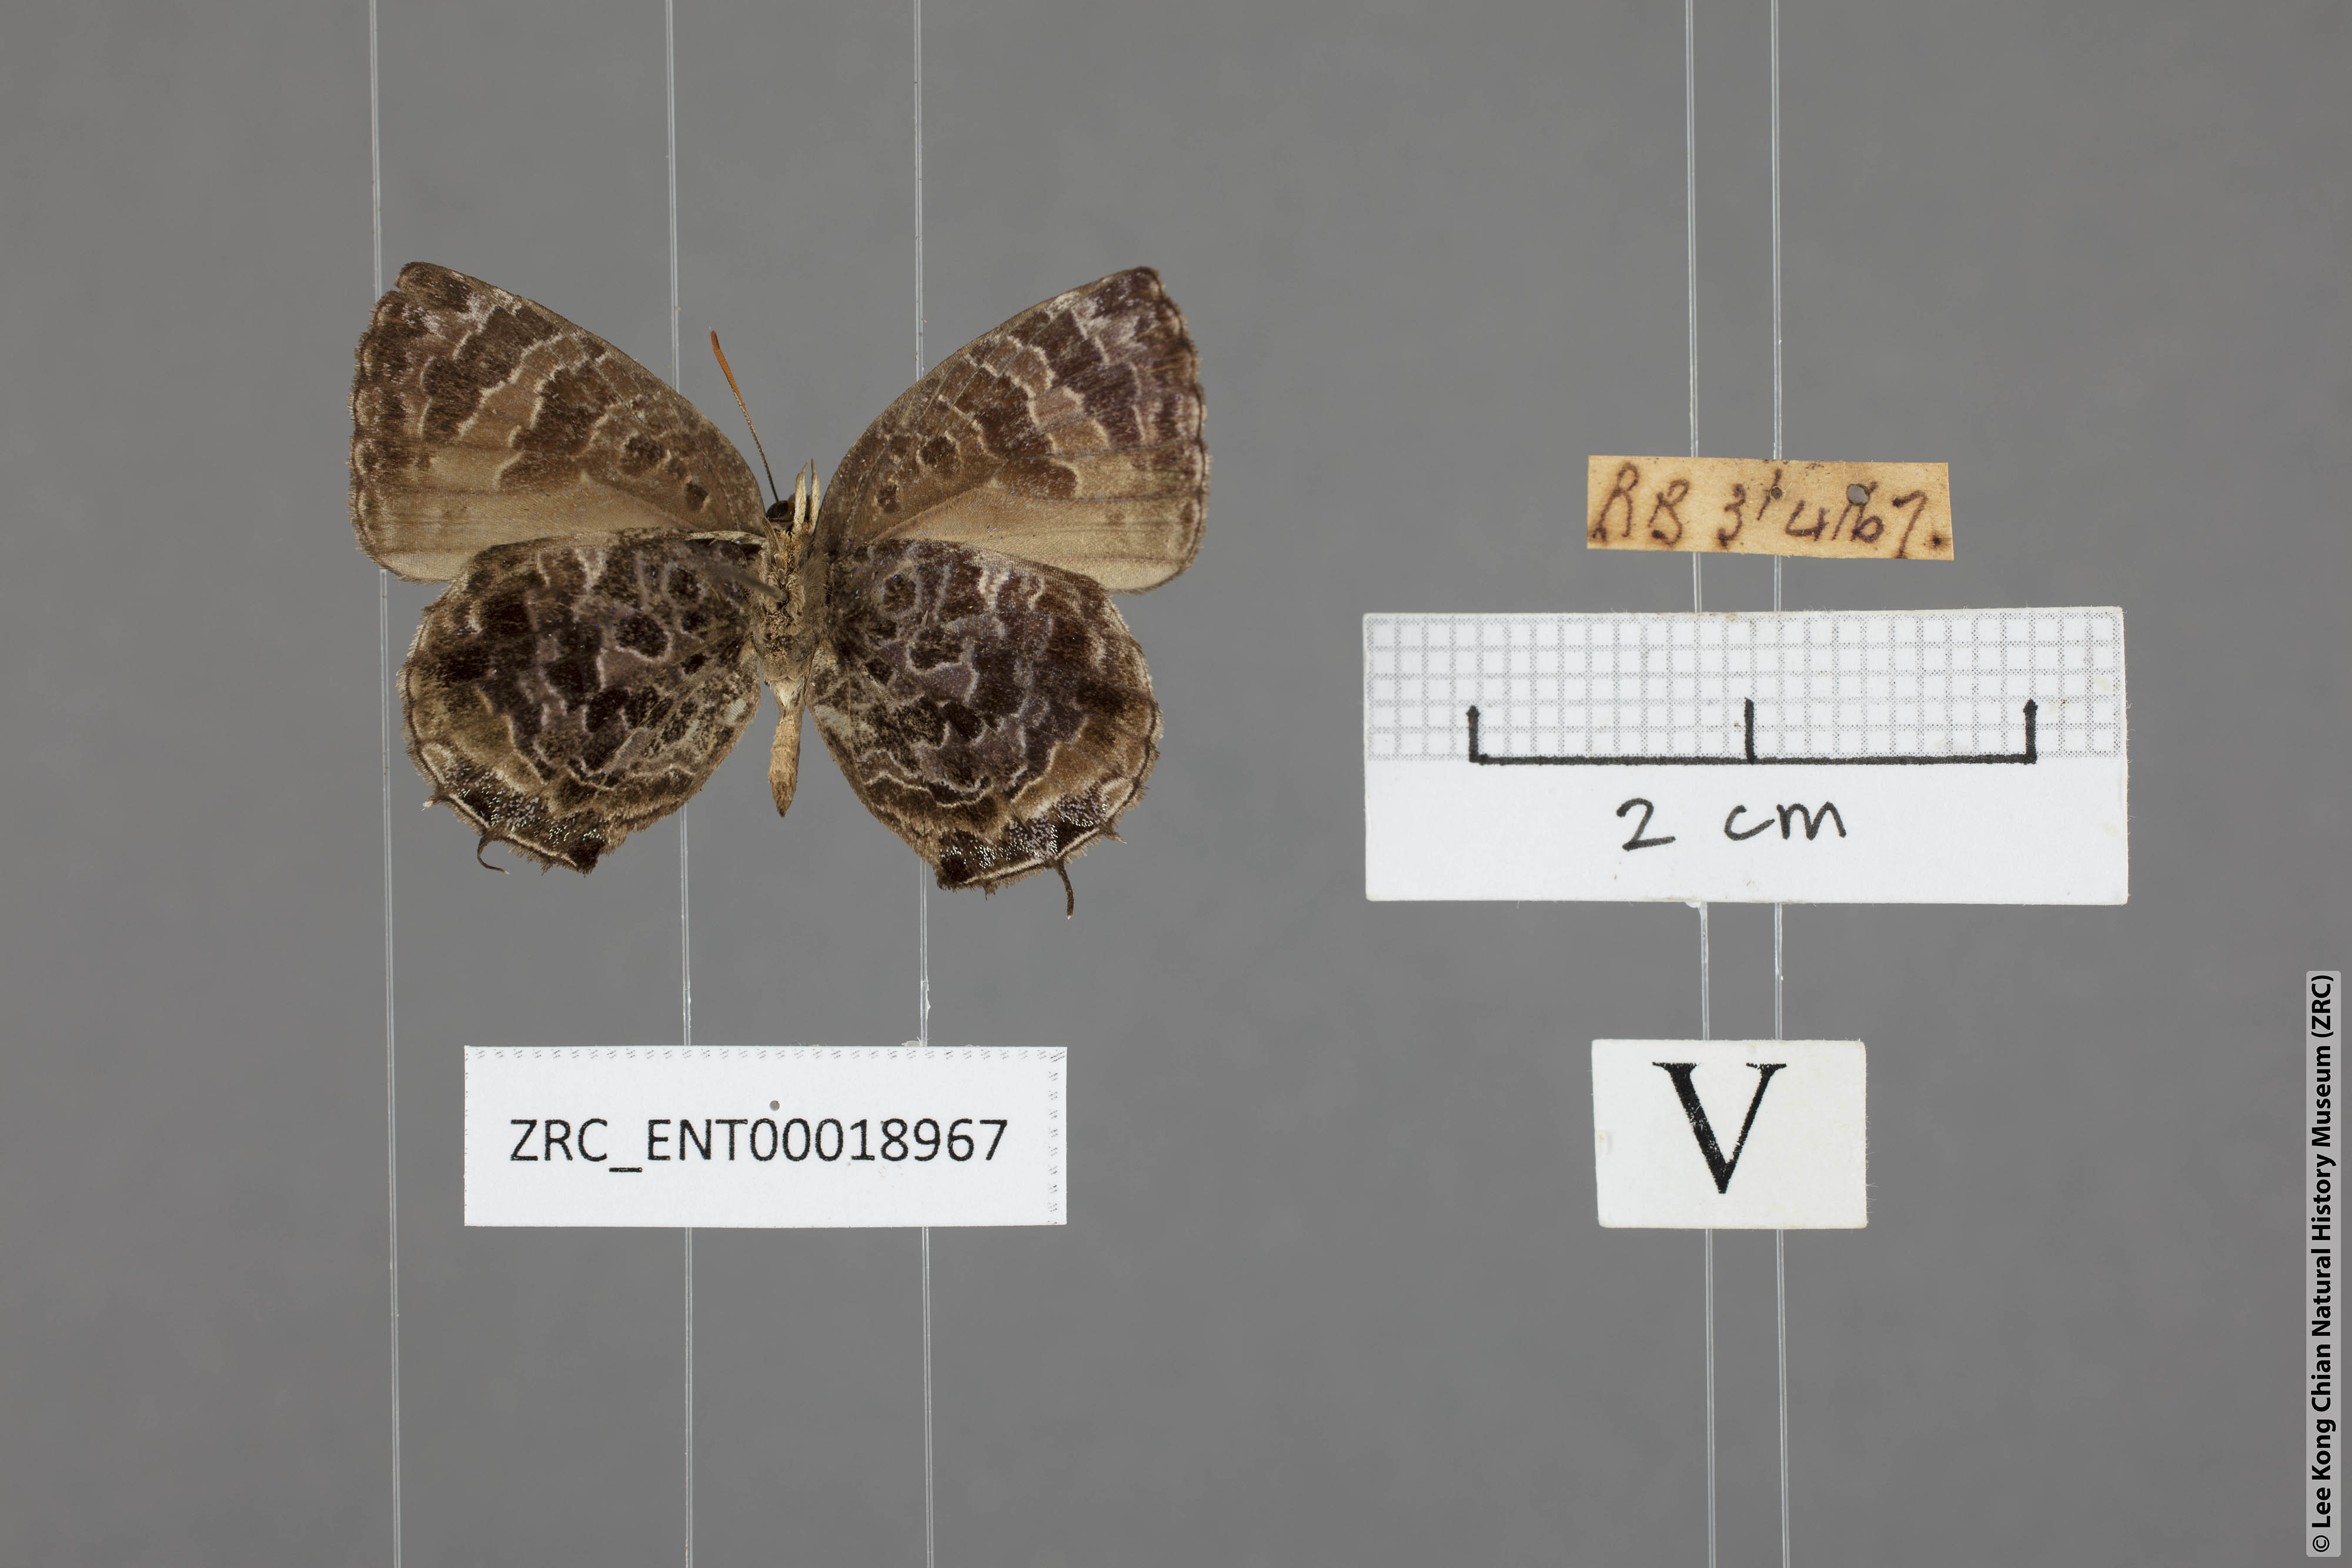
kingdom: Animalia
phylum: Arthropoda
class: Insecta
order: Lepidoptera
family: Lycaenidae
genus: Arhopala
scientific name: Arhopala abseus
